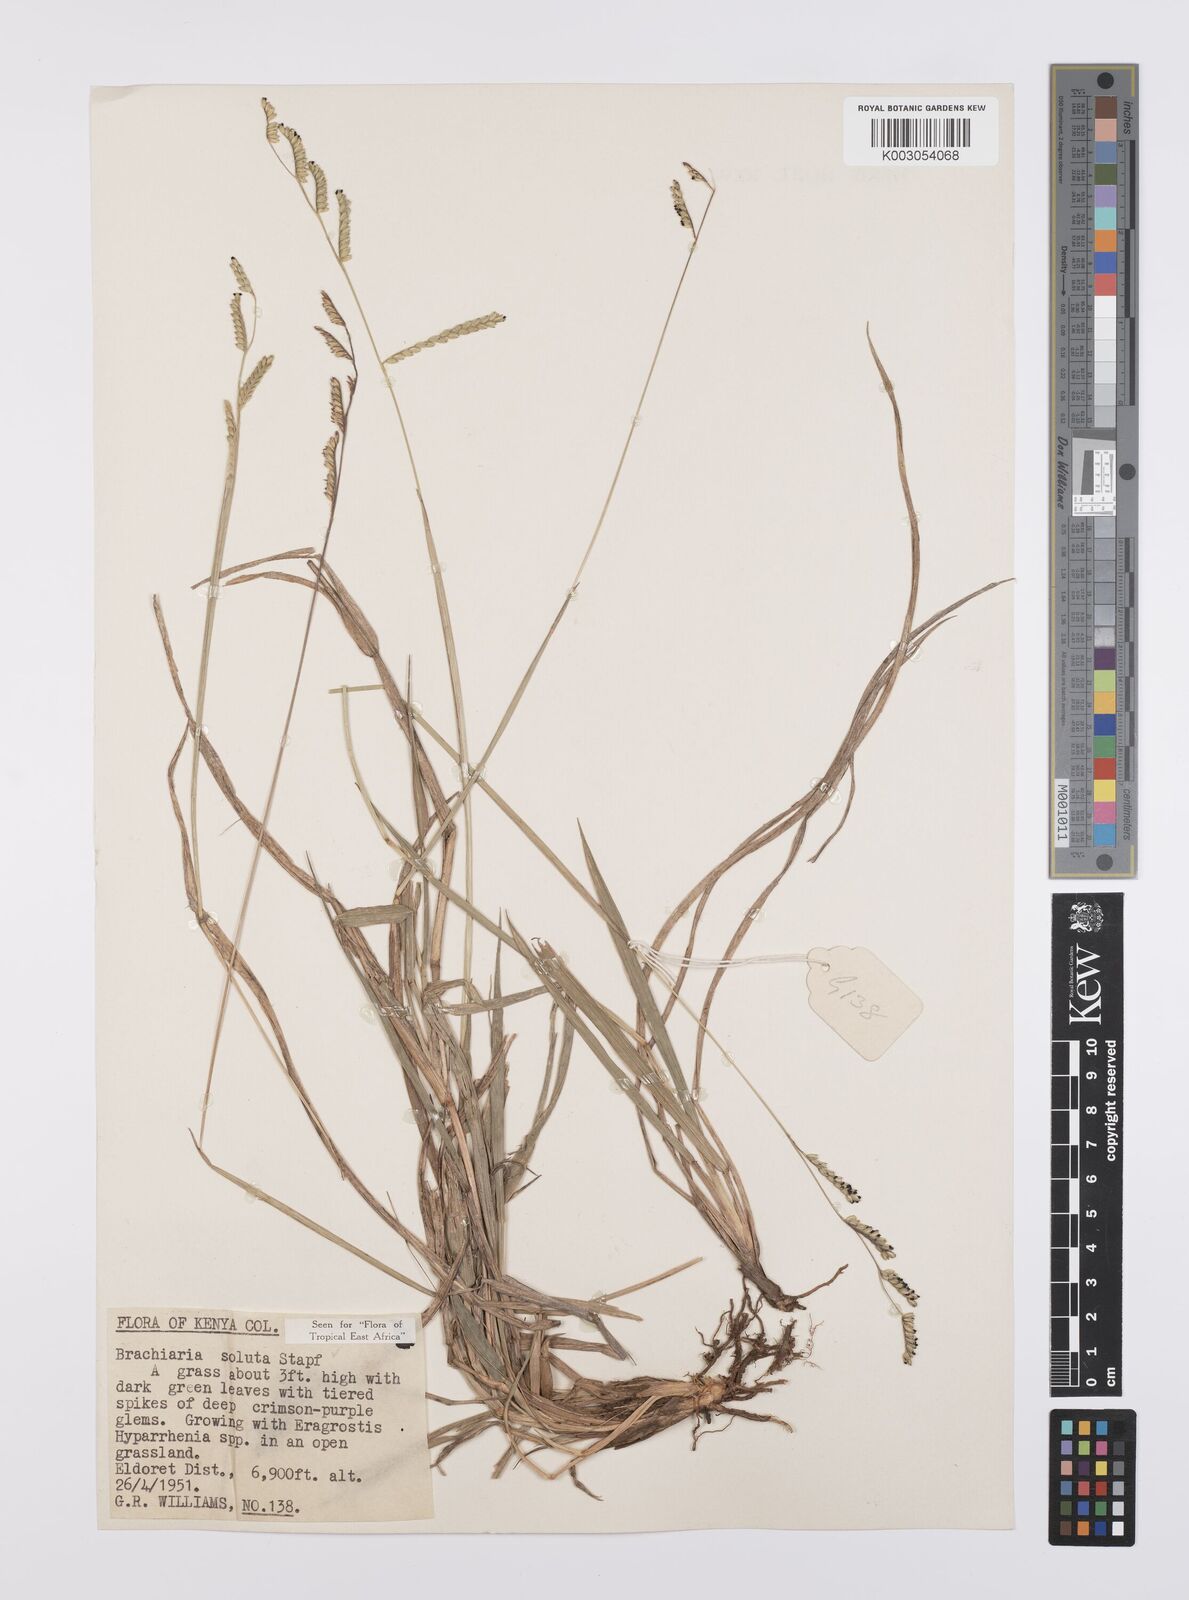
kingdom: Plantae
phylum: Tracheophyta
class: Liliopsida
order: Poales
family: Poaceae
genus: Urochloa
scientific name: Urochloa jubata
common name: Buffalograss
